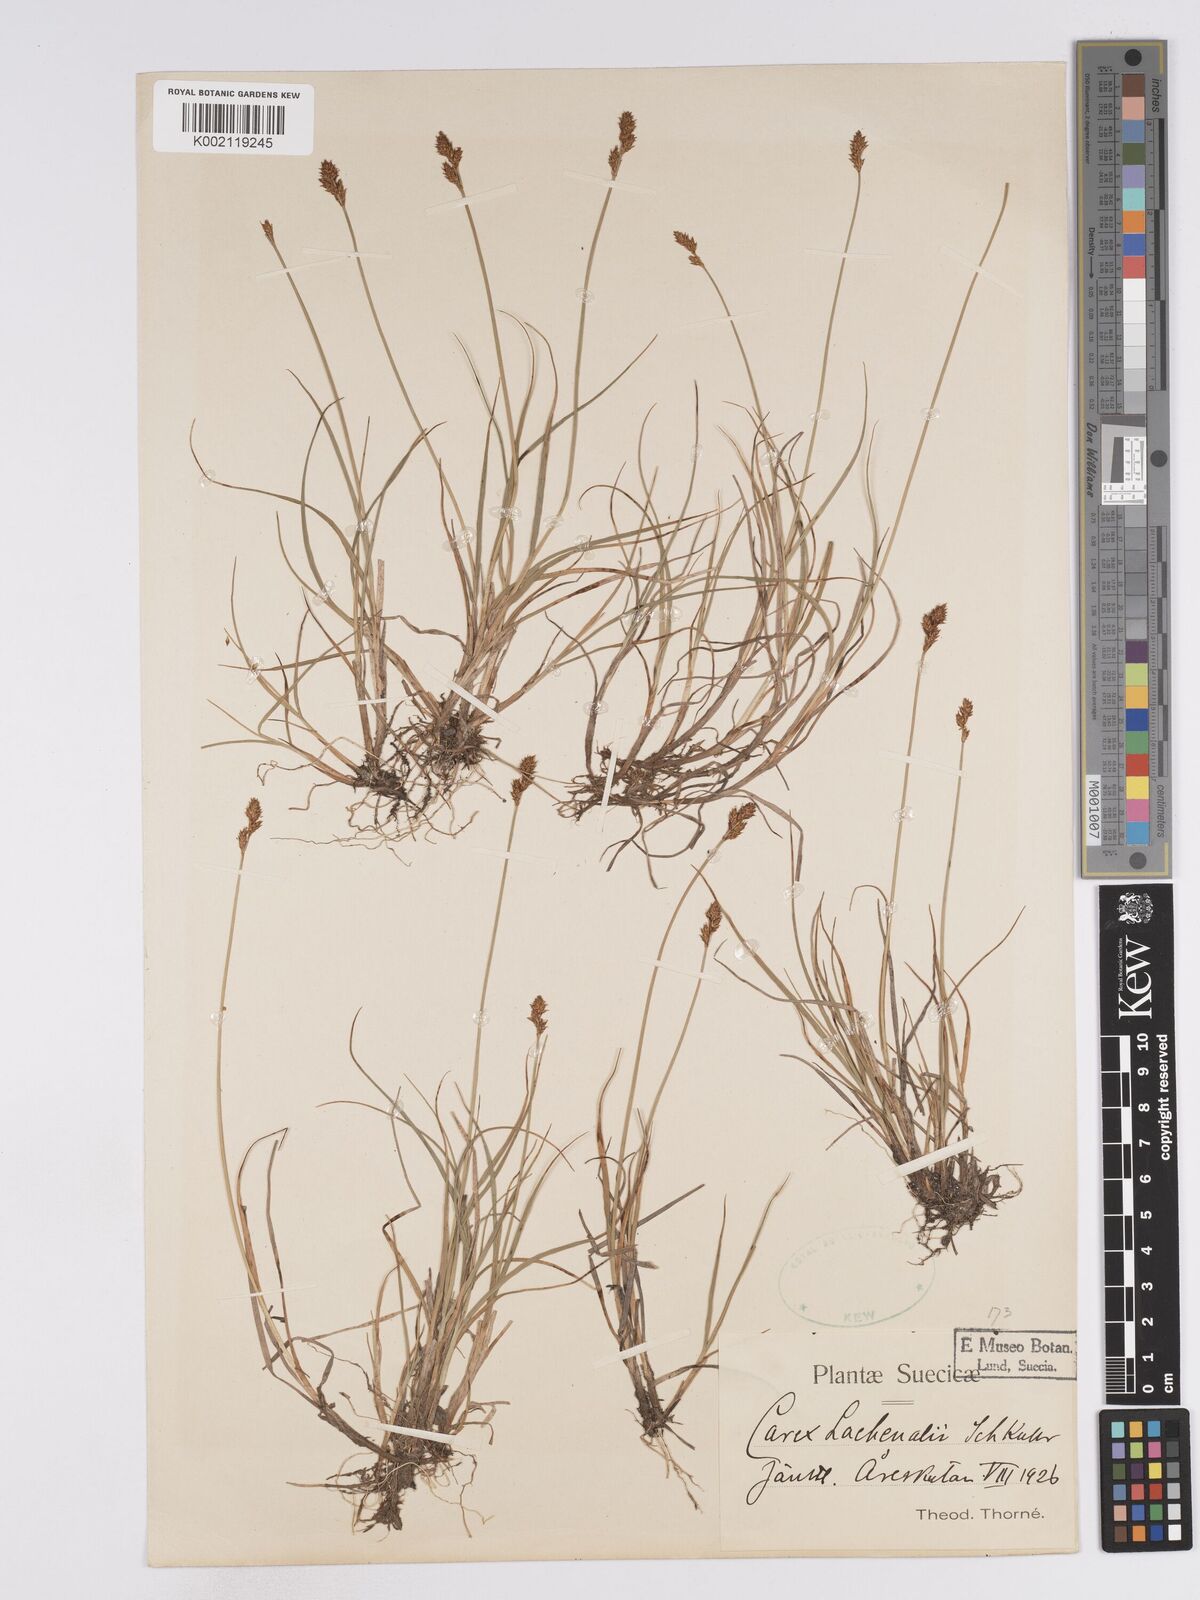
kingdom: Plantae
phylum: Tracheophyta
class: Liliopsida
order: Poales
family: Cyperaceae
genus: Carex
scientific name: Carex lachenalii
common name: Hare's-foot sedge
